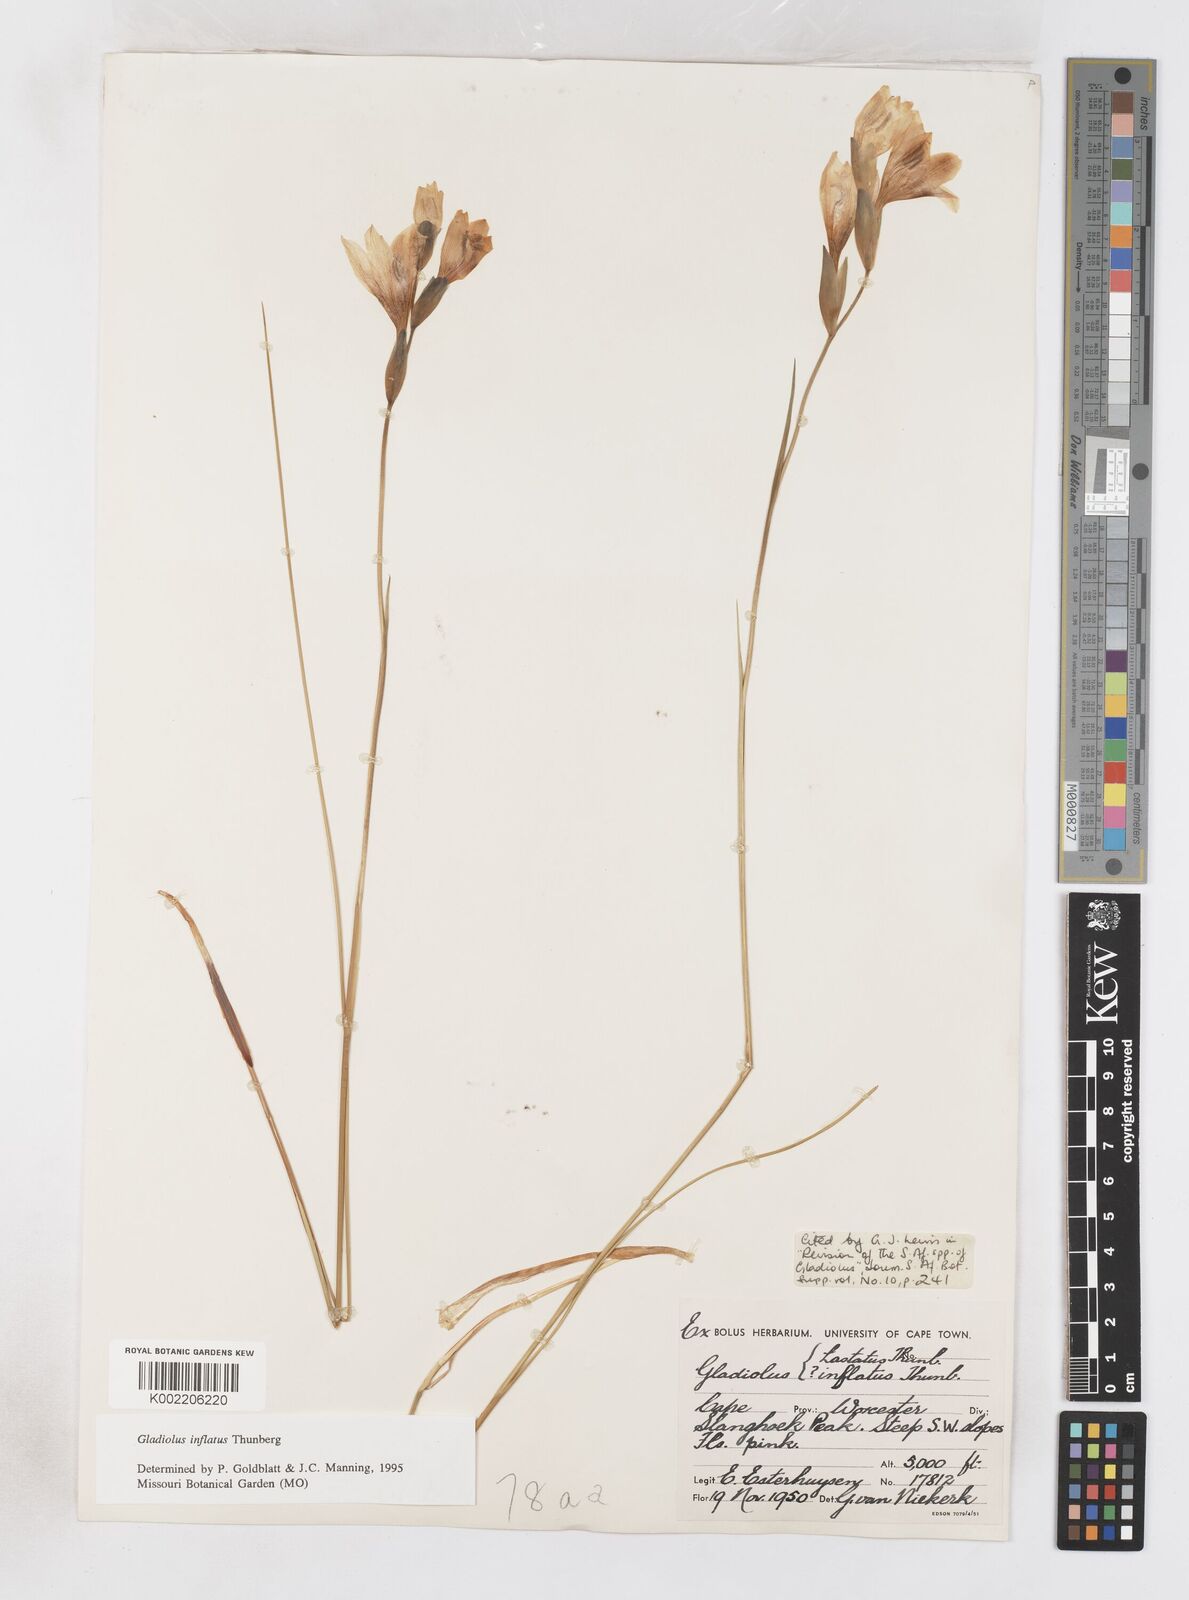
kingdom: Plantae
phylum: Tracheophyta
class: Liliopsida
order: Asparagales
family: Iridaceae
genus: Gladiolus
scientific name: Gladiolus inflatus
